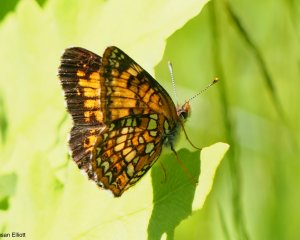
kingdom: Animalia
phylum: Arthropoda
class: Insecta
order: Lepidoptera
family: Nymphalidae
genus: Chlosyne
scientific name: Chlosyne harrisii
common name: Harris's Checkerspot
